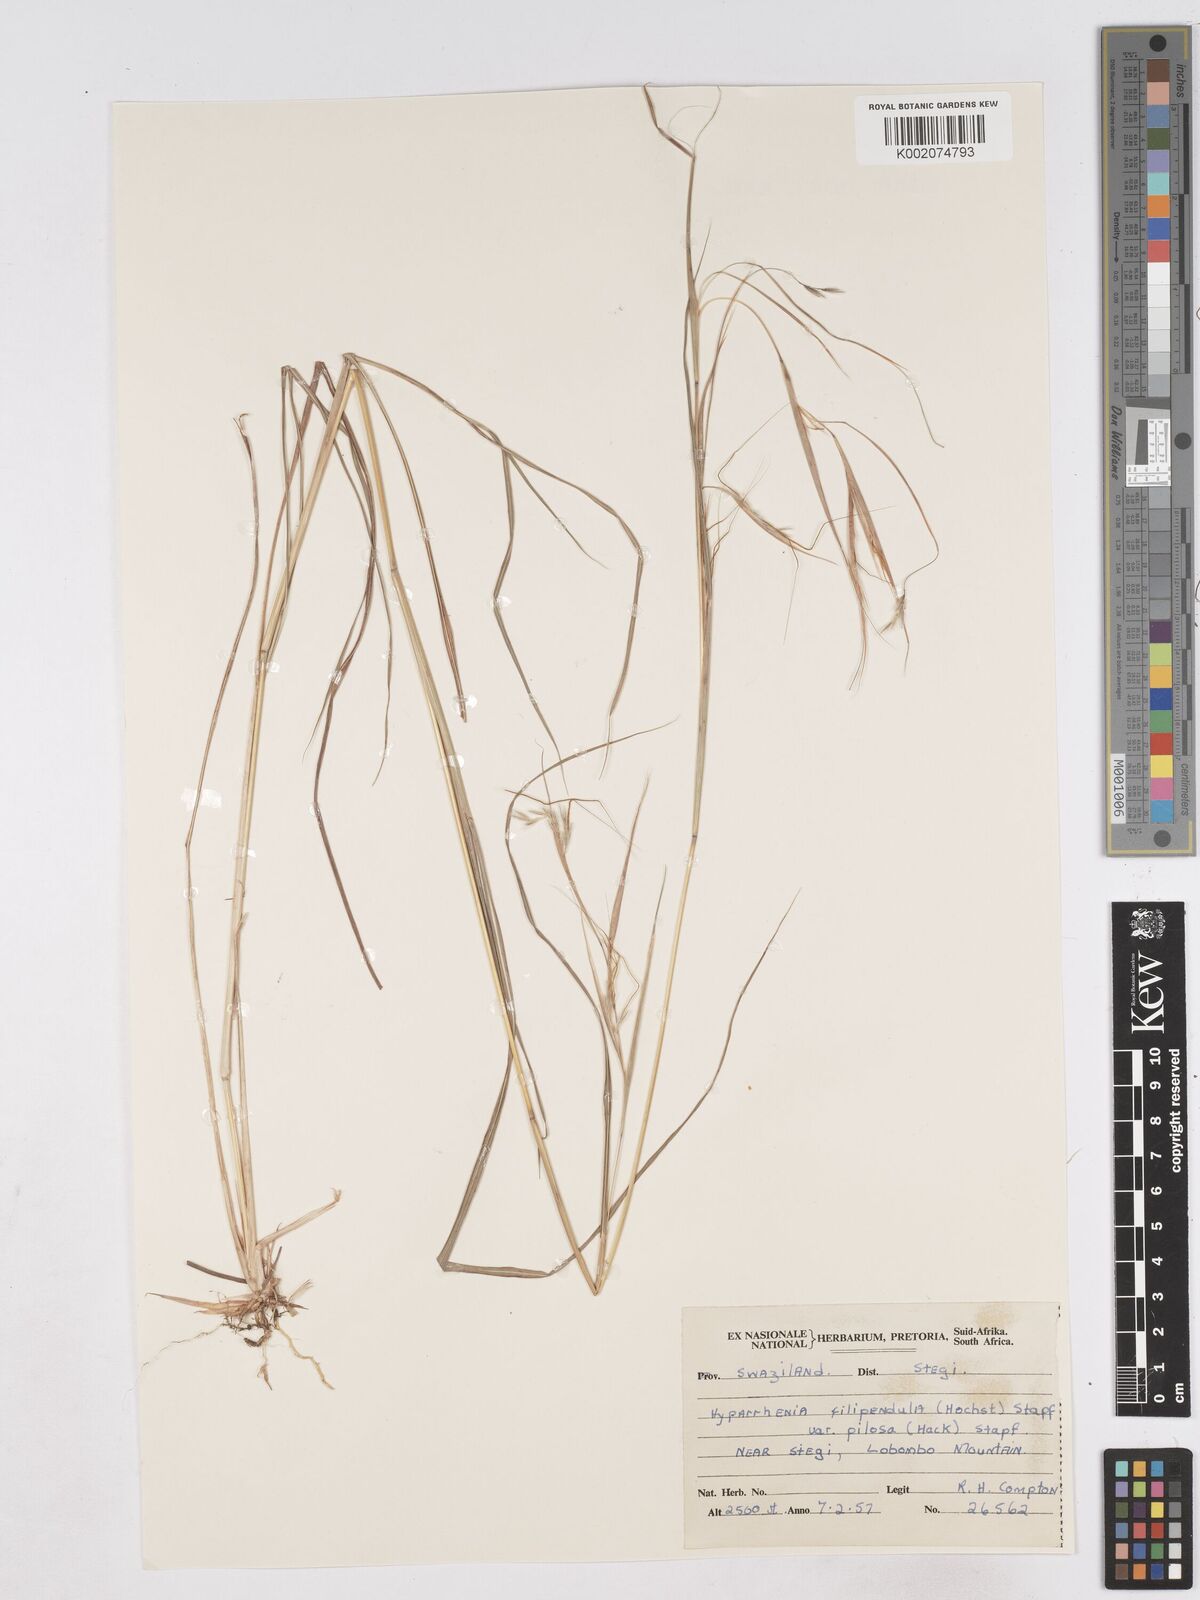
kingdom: Plantae
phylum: Tracheophyta
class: Liliopsida
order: Poales
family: Poaceae
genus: Hyparrhenia
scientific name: Hyparrhenia filipendula
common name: Tambookie grass
